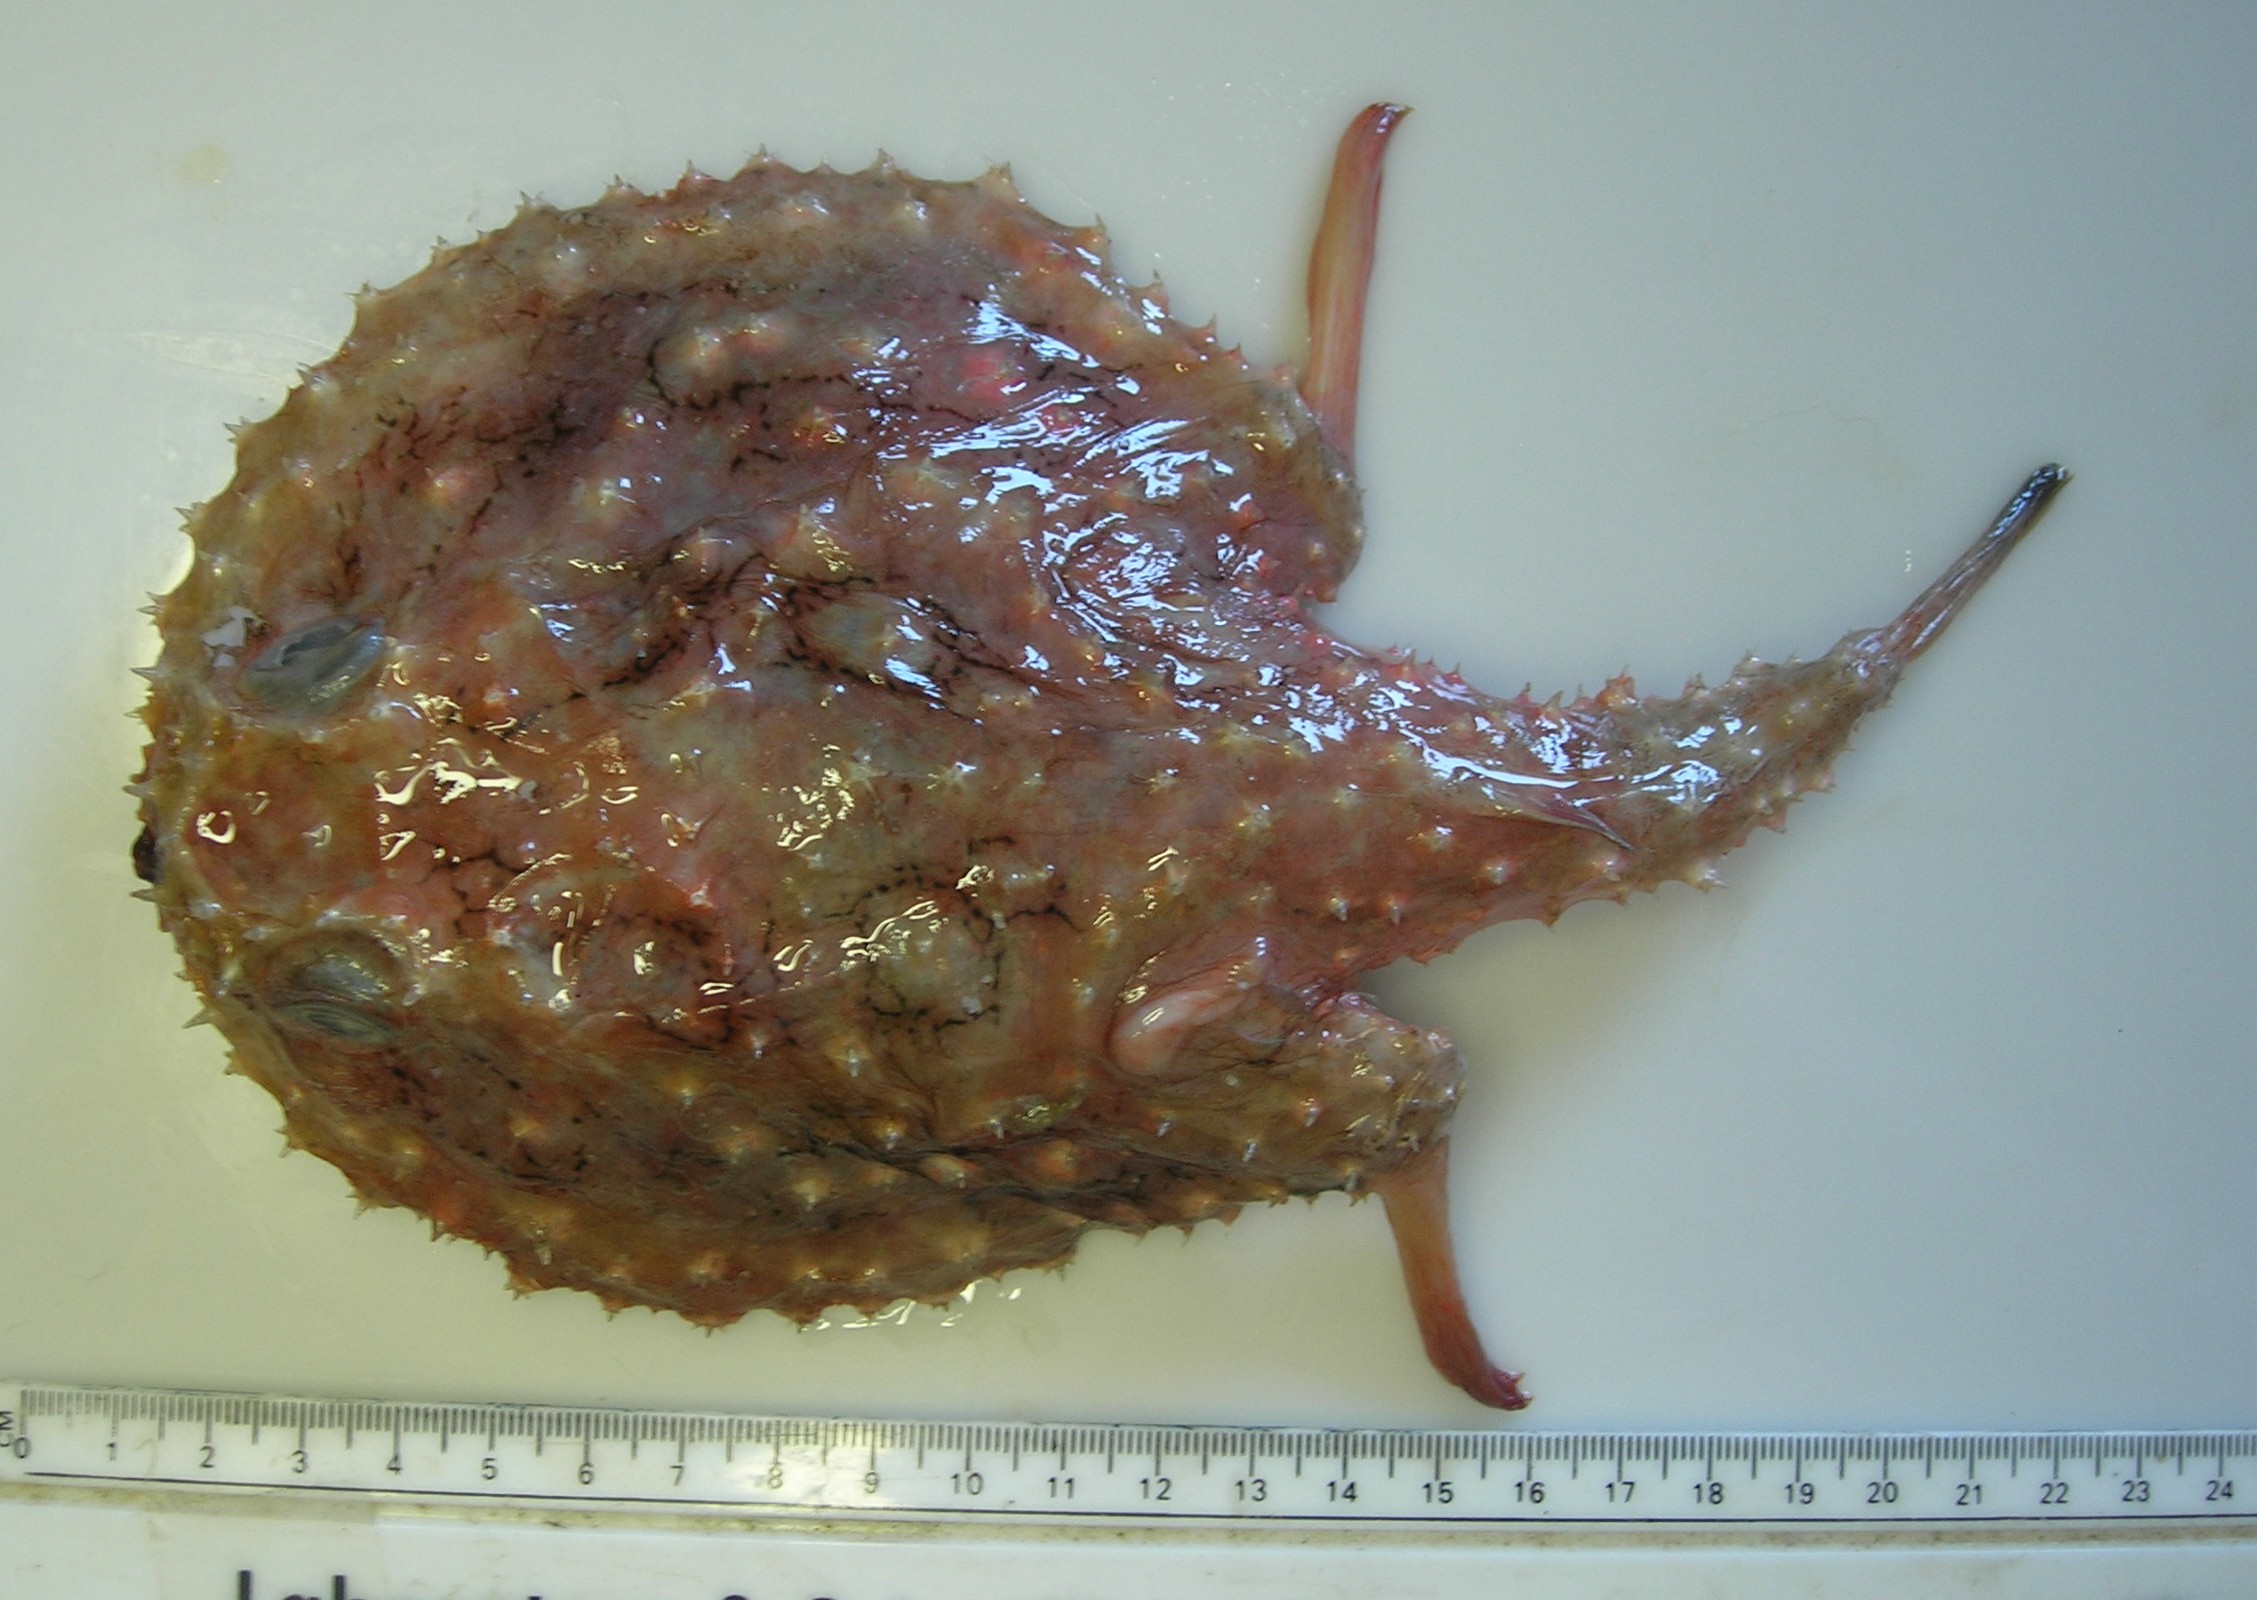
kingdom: Animalia
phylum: Chordata
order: Lophiiformes
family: Ogcocephalidae
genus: Halieutaea
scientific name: Halieutaea fitzsimonsi
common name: Circular seabat
